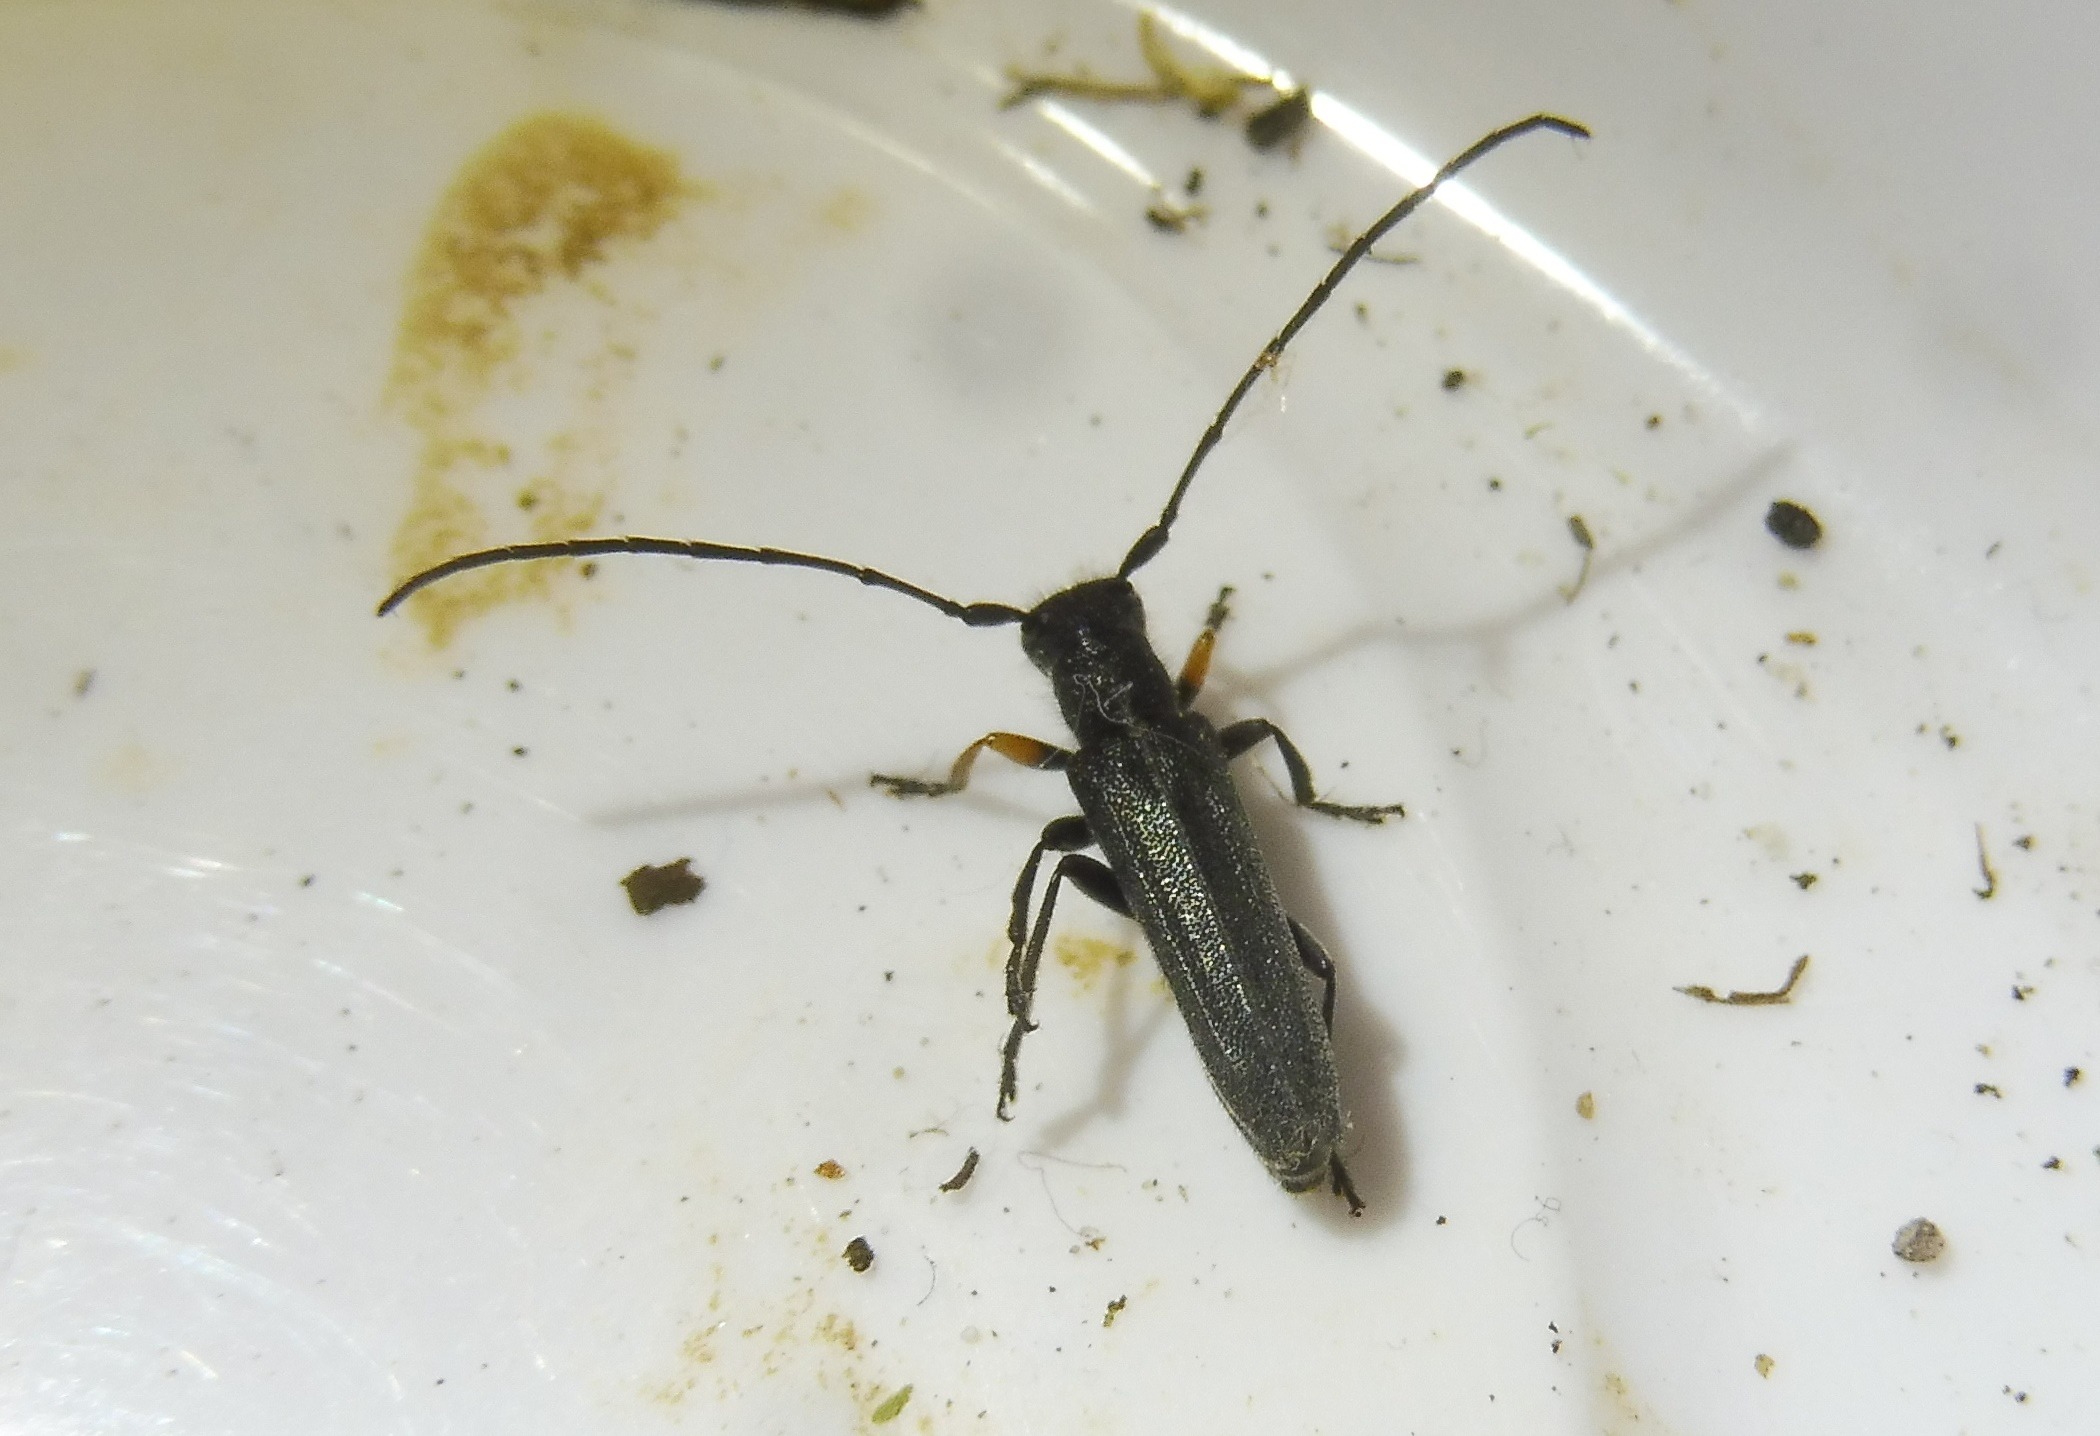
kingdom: Animalia
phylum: Arthropoda
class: Insecta
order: Coleoptera
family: Cerambycidae
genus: Phytoecia
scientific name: Phytoecia cylindrica
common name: Kørvelbuk
